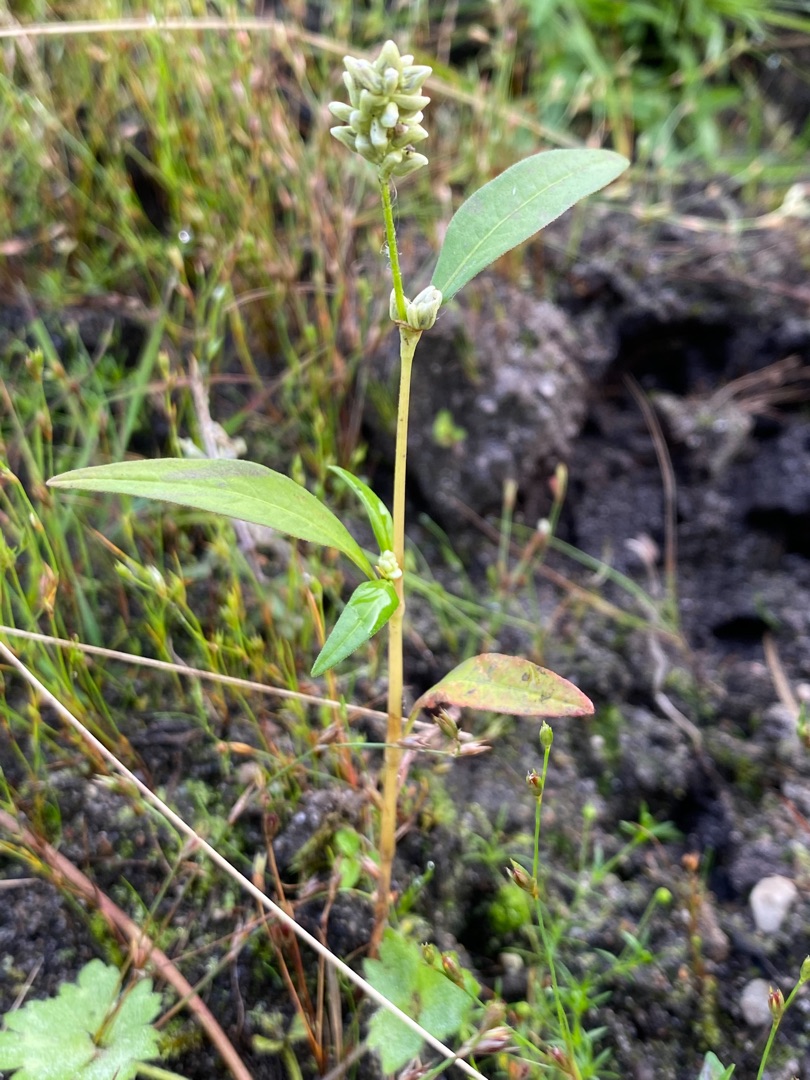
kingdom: Plantae
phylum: Tracheophyta
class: Magnoliopsida
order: Caryophyllales
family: Polygonaceae
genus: Persicaria
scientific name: Persicaria lapathifolia
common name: Bleg pileurt
